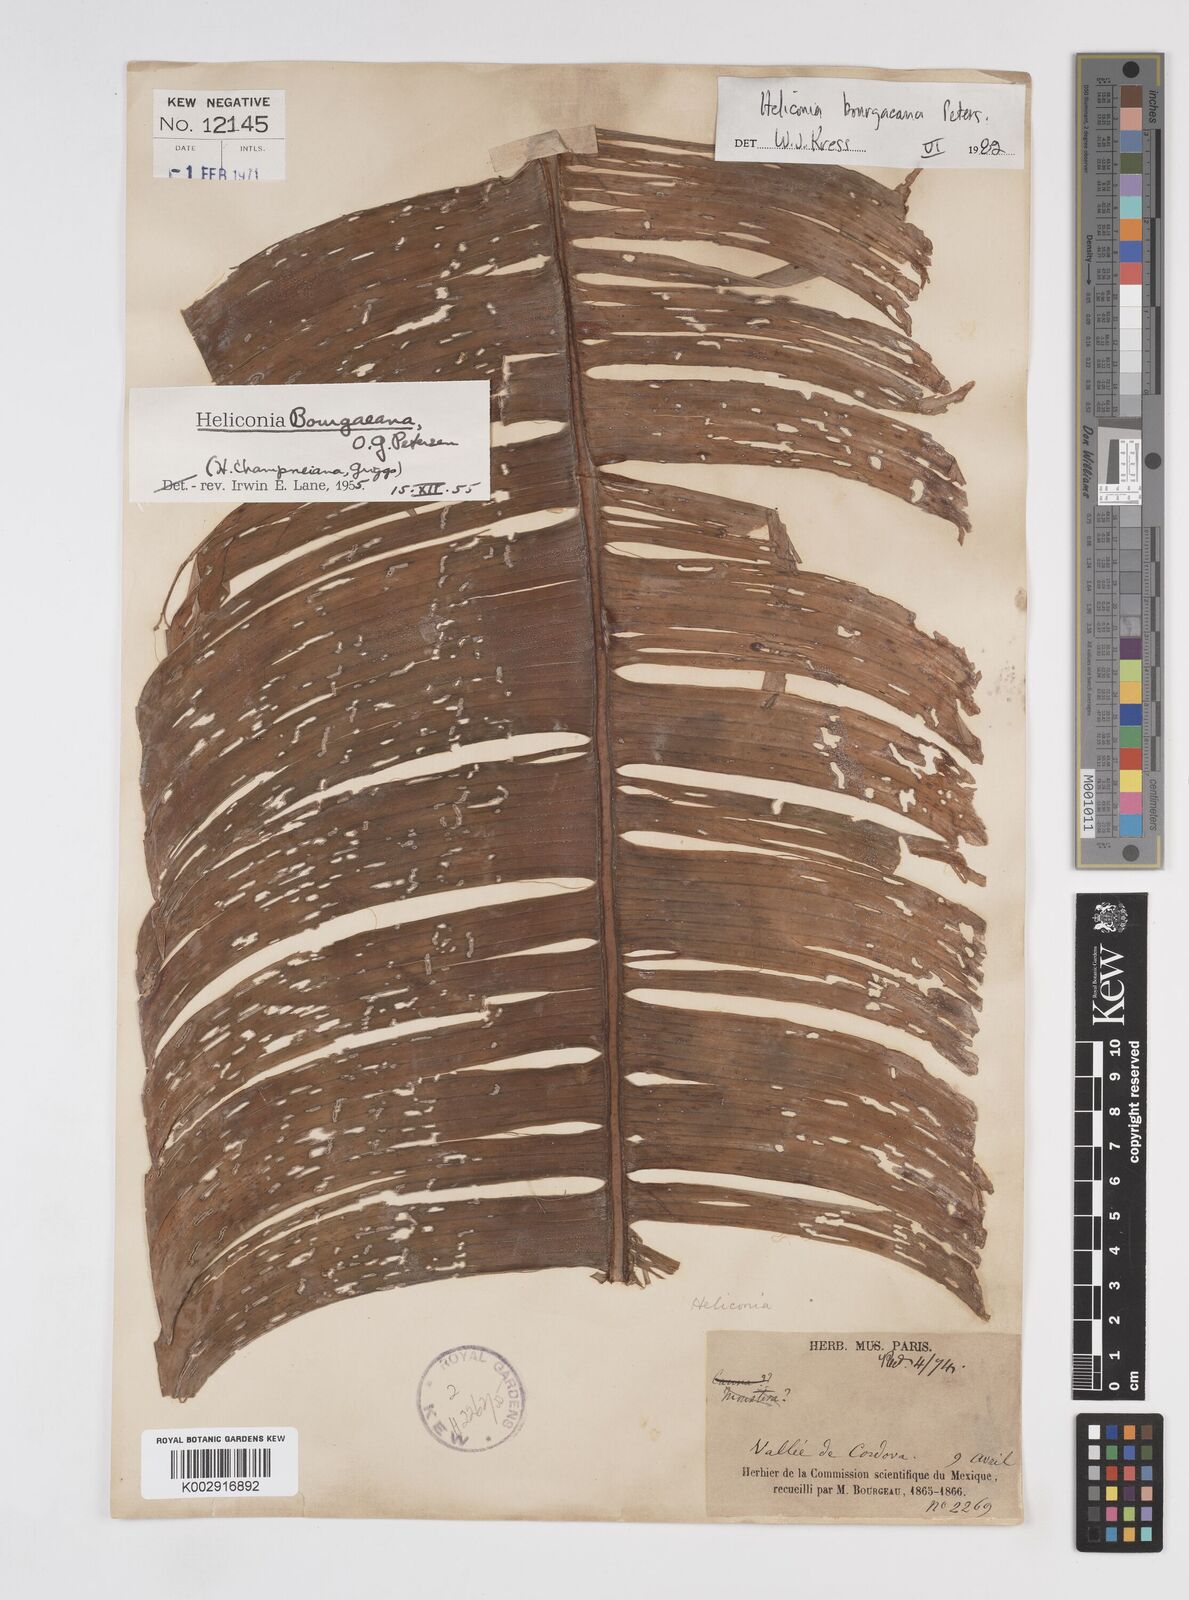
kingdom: Plantae
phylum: Tracheophyta
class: Liliopsida
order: Zingiberales
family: Heliconiaceae
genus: Heliconia
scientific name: Heliconia bourgaeana
